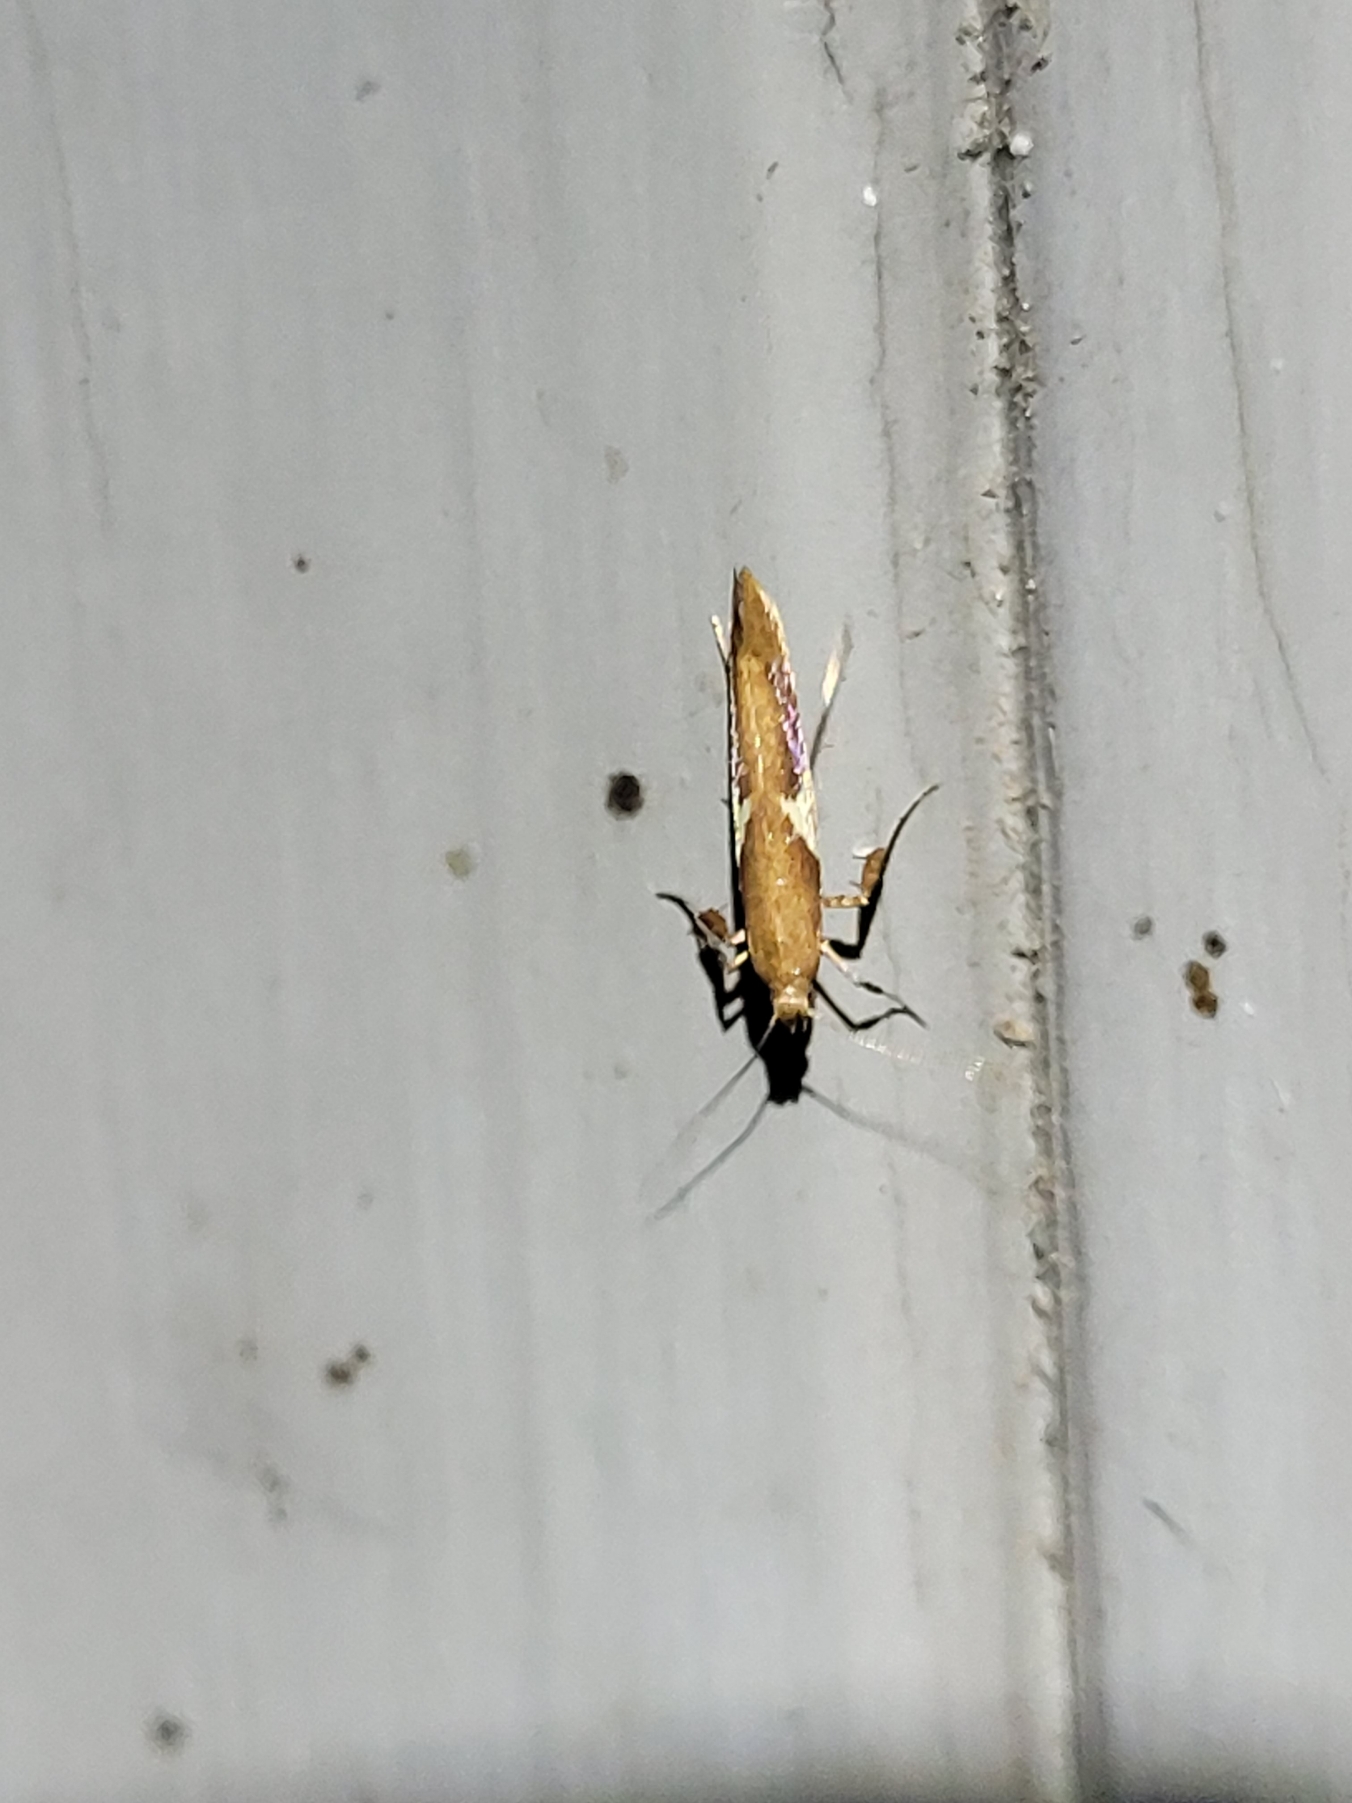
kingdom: Animalia
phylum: Arthropoda
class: Insecta
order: Lepidoptera
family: Gracillariidae
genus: Caloptilia
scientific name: Caloptilia stigmatella
